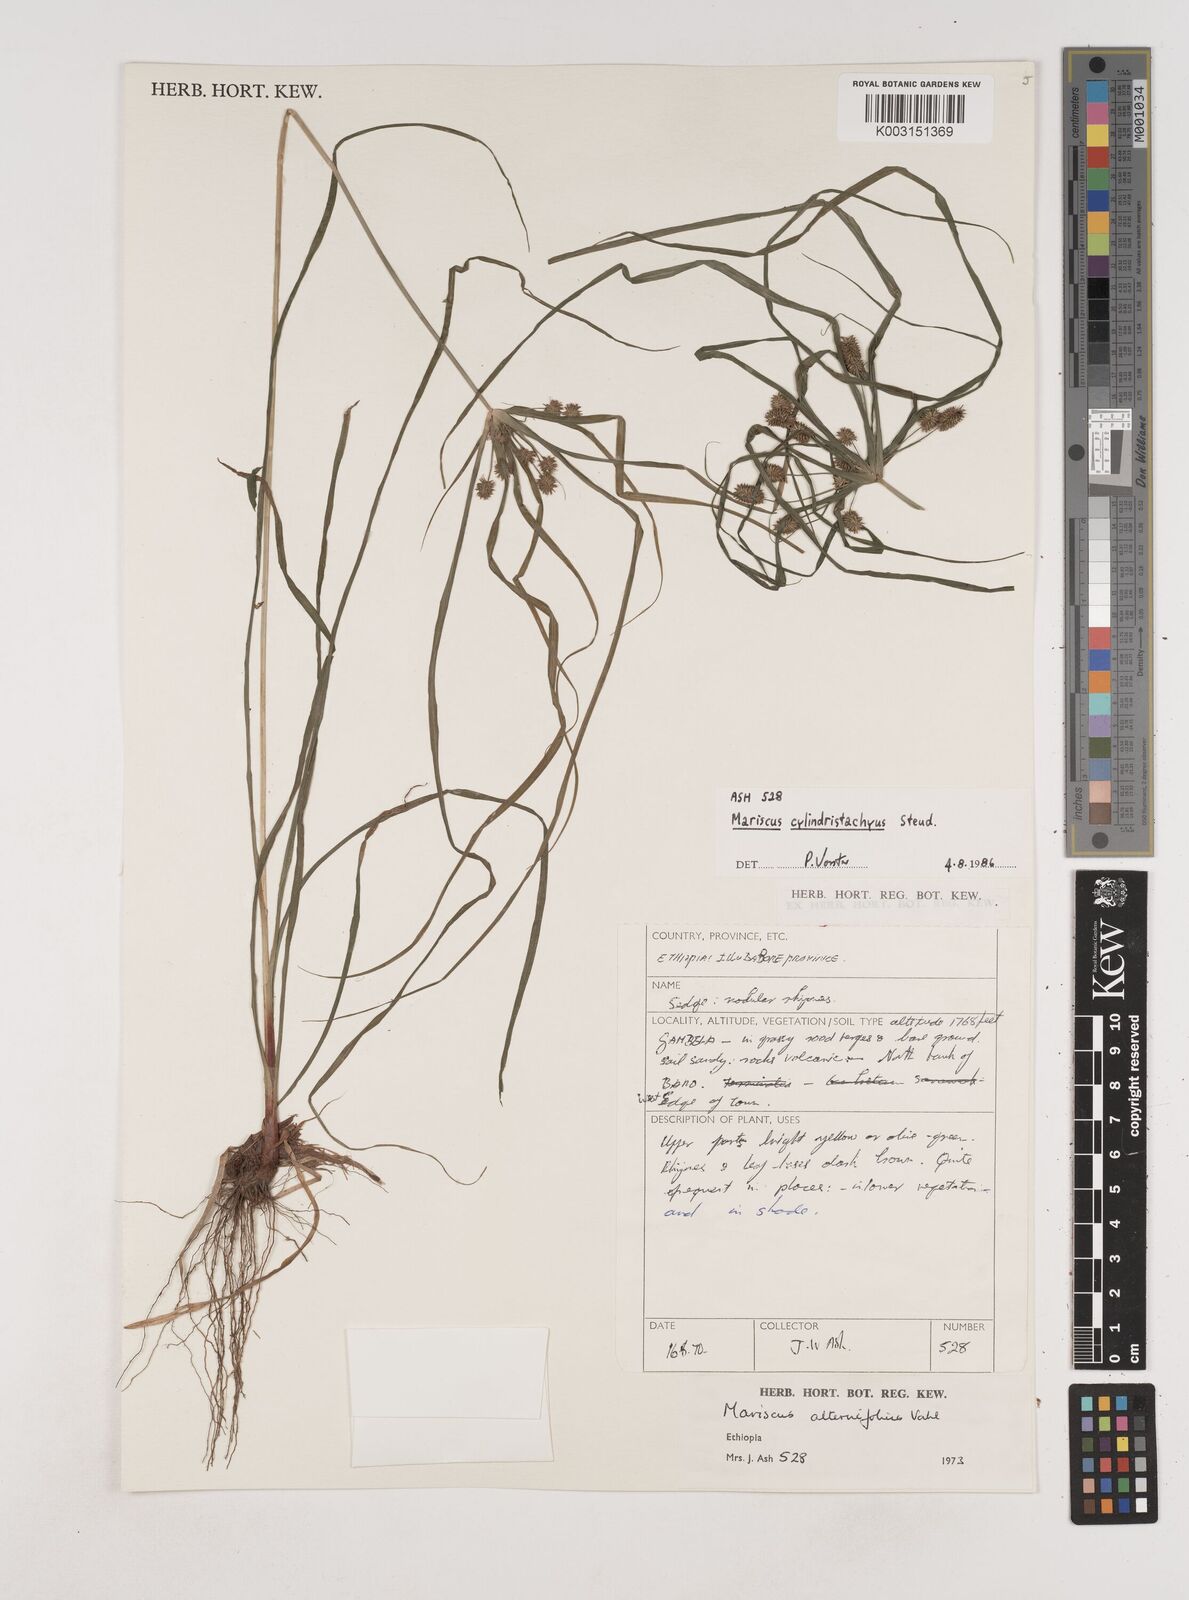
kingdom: Plantae
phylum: Tracheophyta
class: Liliopsida
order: Poales
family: Cyperaceae
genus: Cyperus
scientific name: Cyperus cyperoides
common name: Pacific island flat sedge
